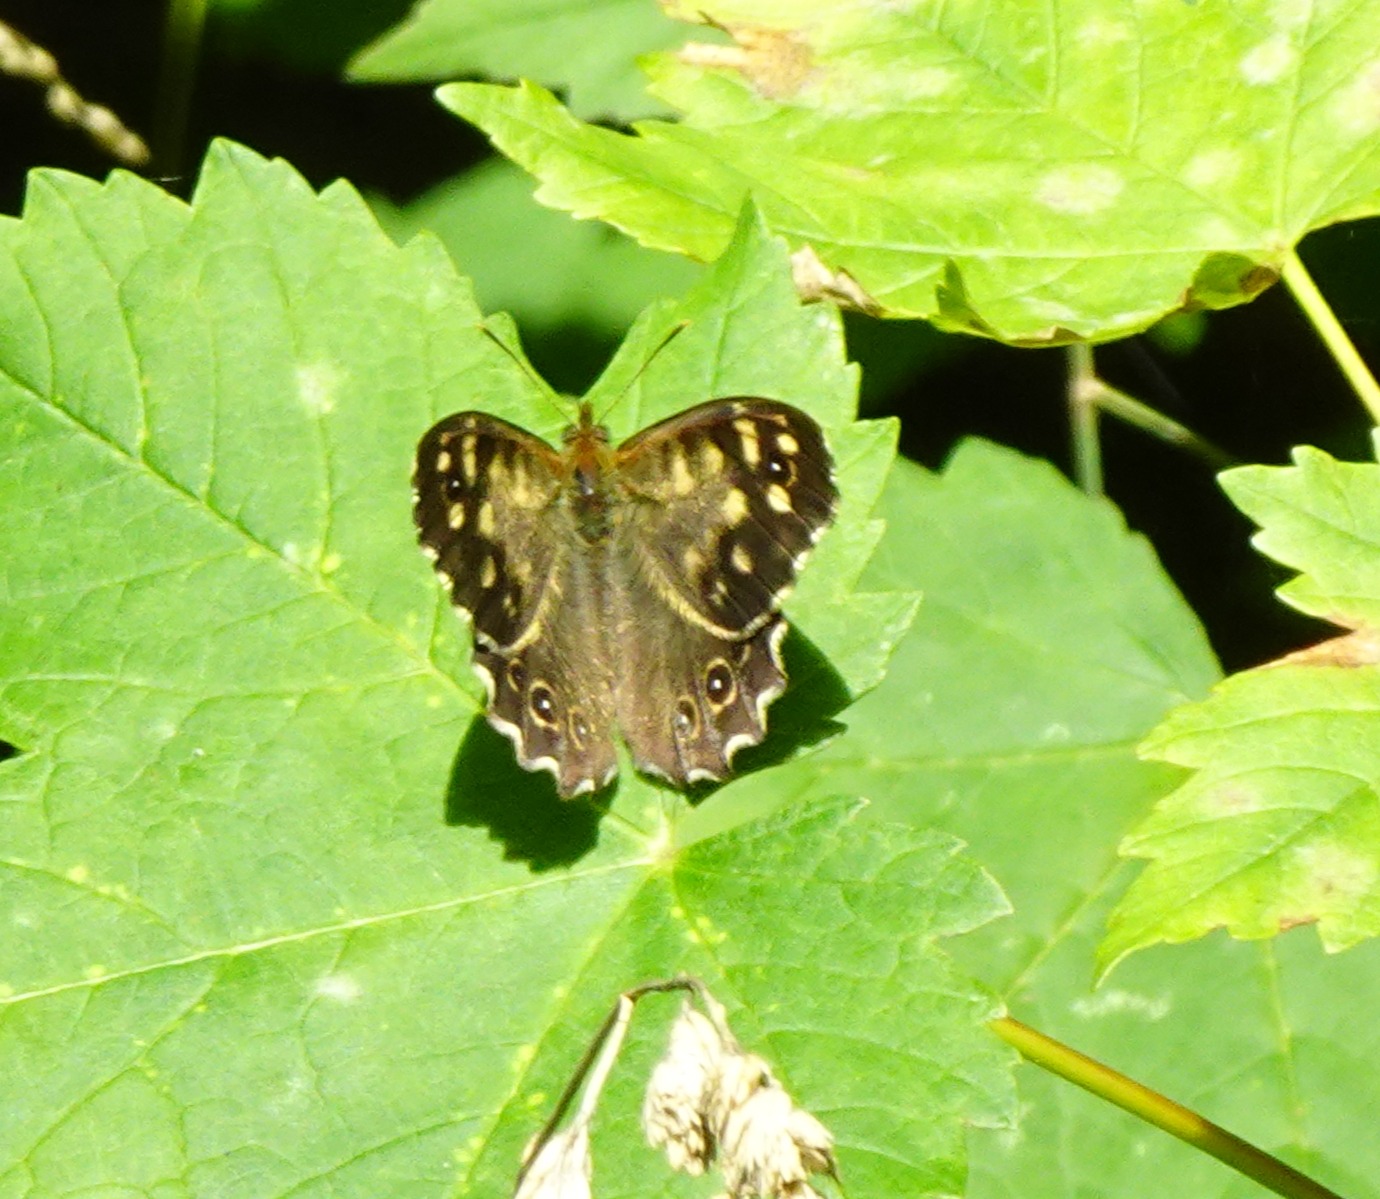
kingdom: Animalia
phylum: Arthropoda
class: Insecta
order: Lepidoptera
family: Nymphalidae
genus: Pararge
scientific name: Pararge aegeria
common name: Skovrandøje
